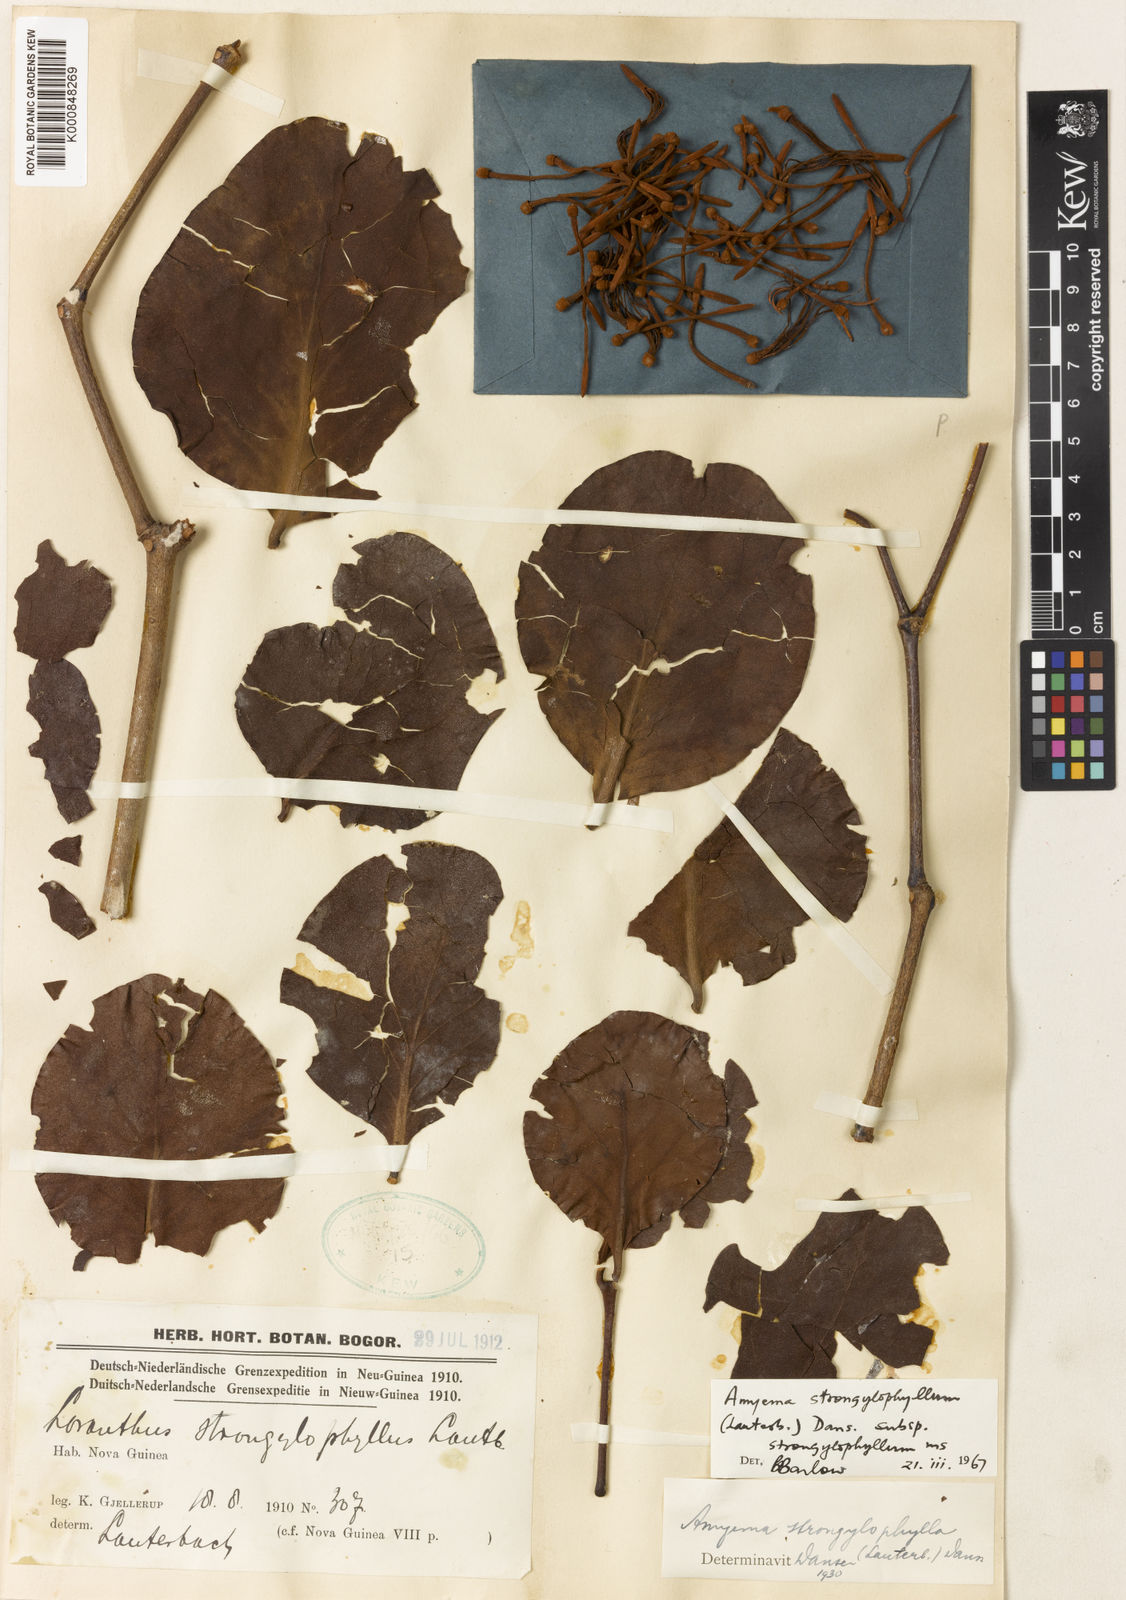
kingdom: Plantae
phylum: Tracheophyta
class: Magnoliopsida
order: Santalales
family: Loranthaceae
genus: Amyema
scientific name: Amyema strongylophylla
